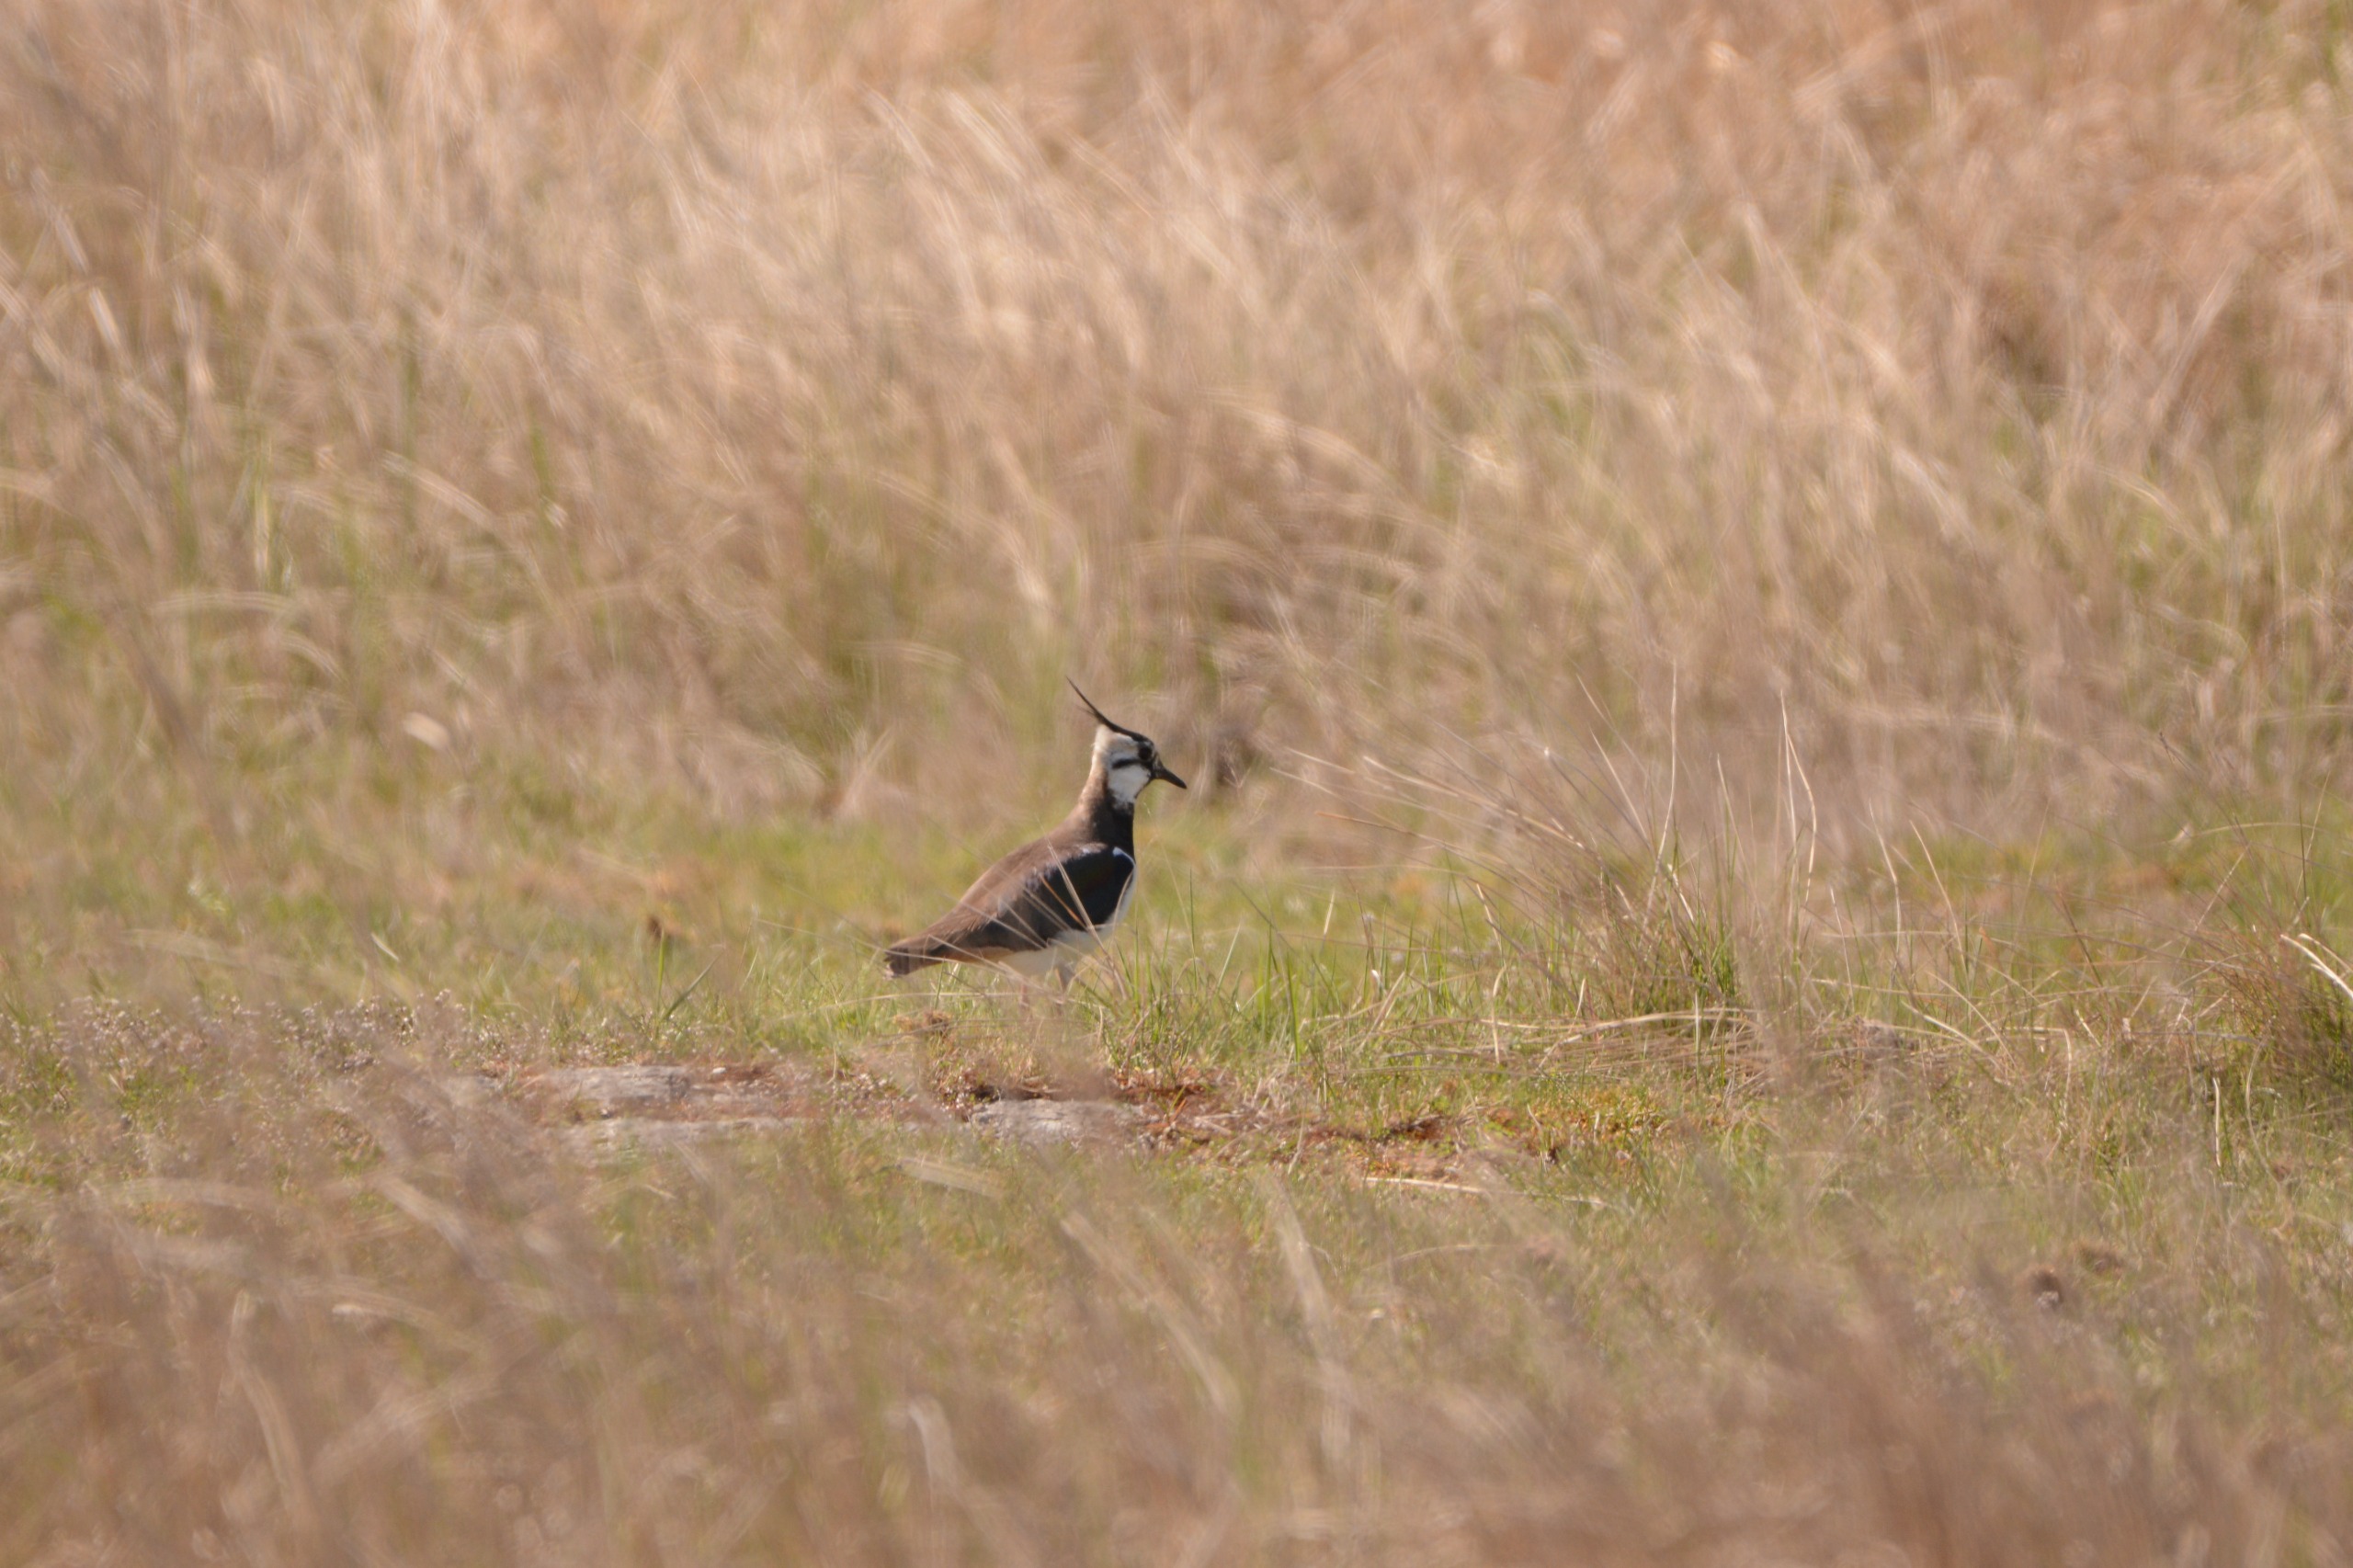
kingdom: Animalia
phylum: Chordata
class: Aves
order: Charadriiformes
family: Charadriidae
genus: Vanellus
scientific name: Vanellus vanellus
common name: Vibe
